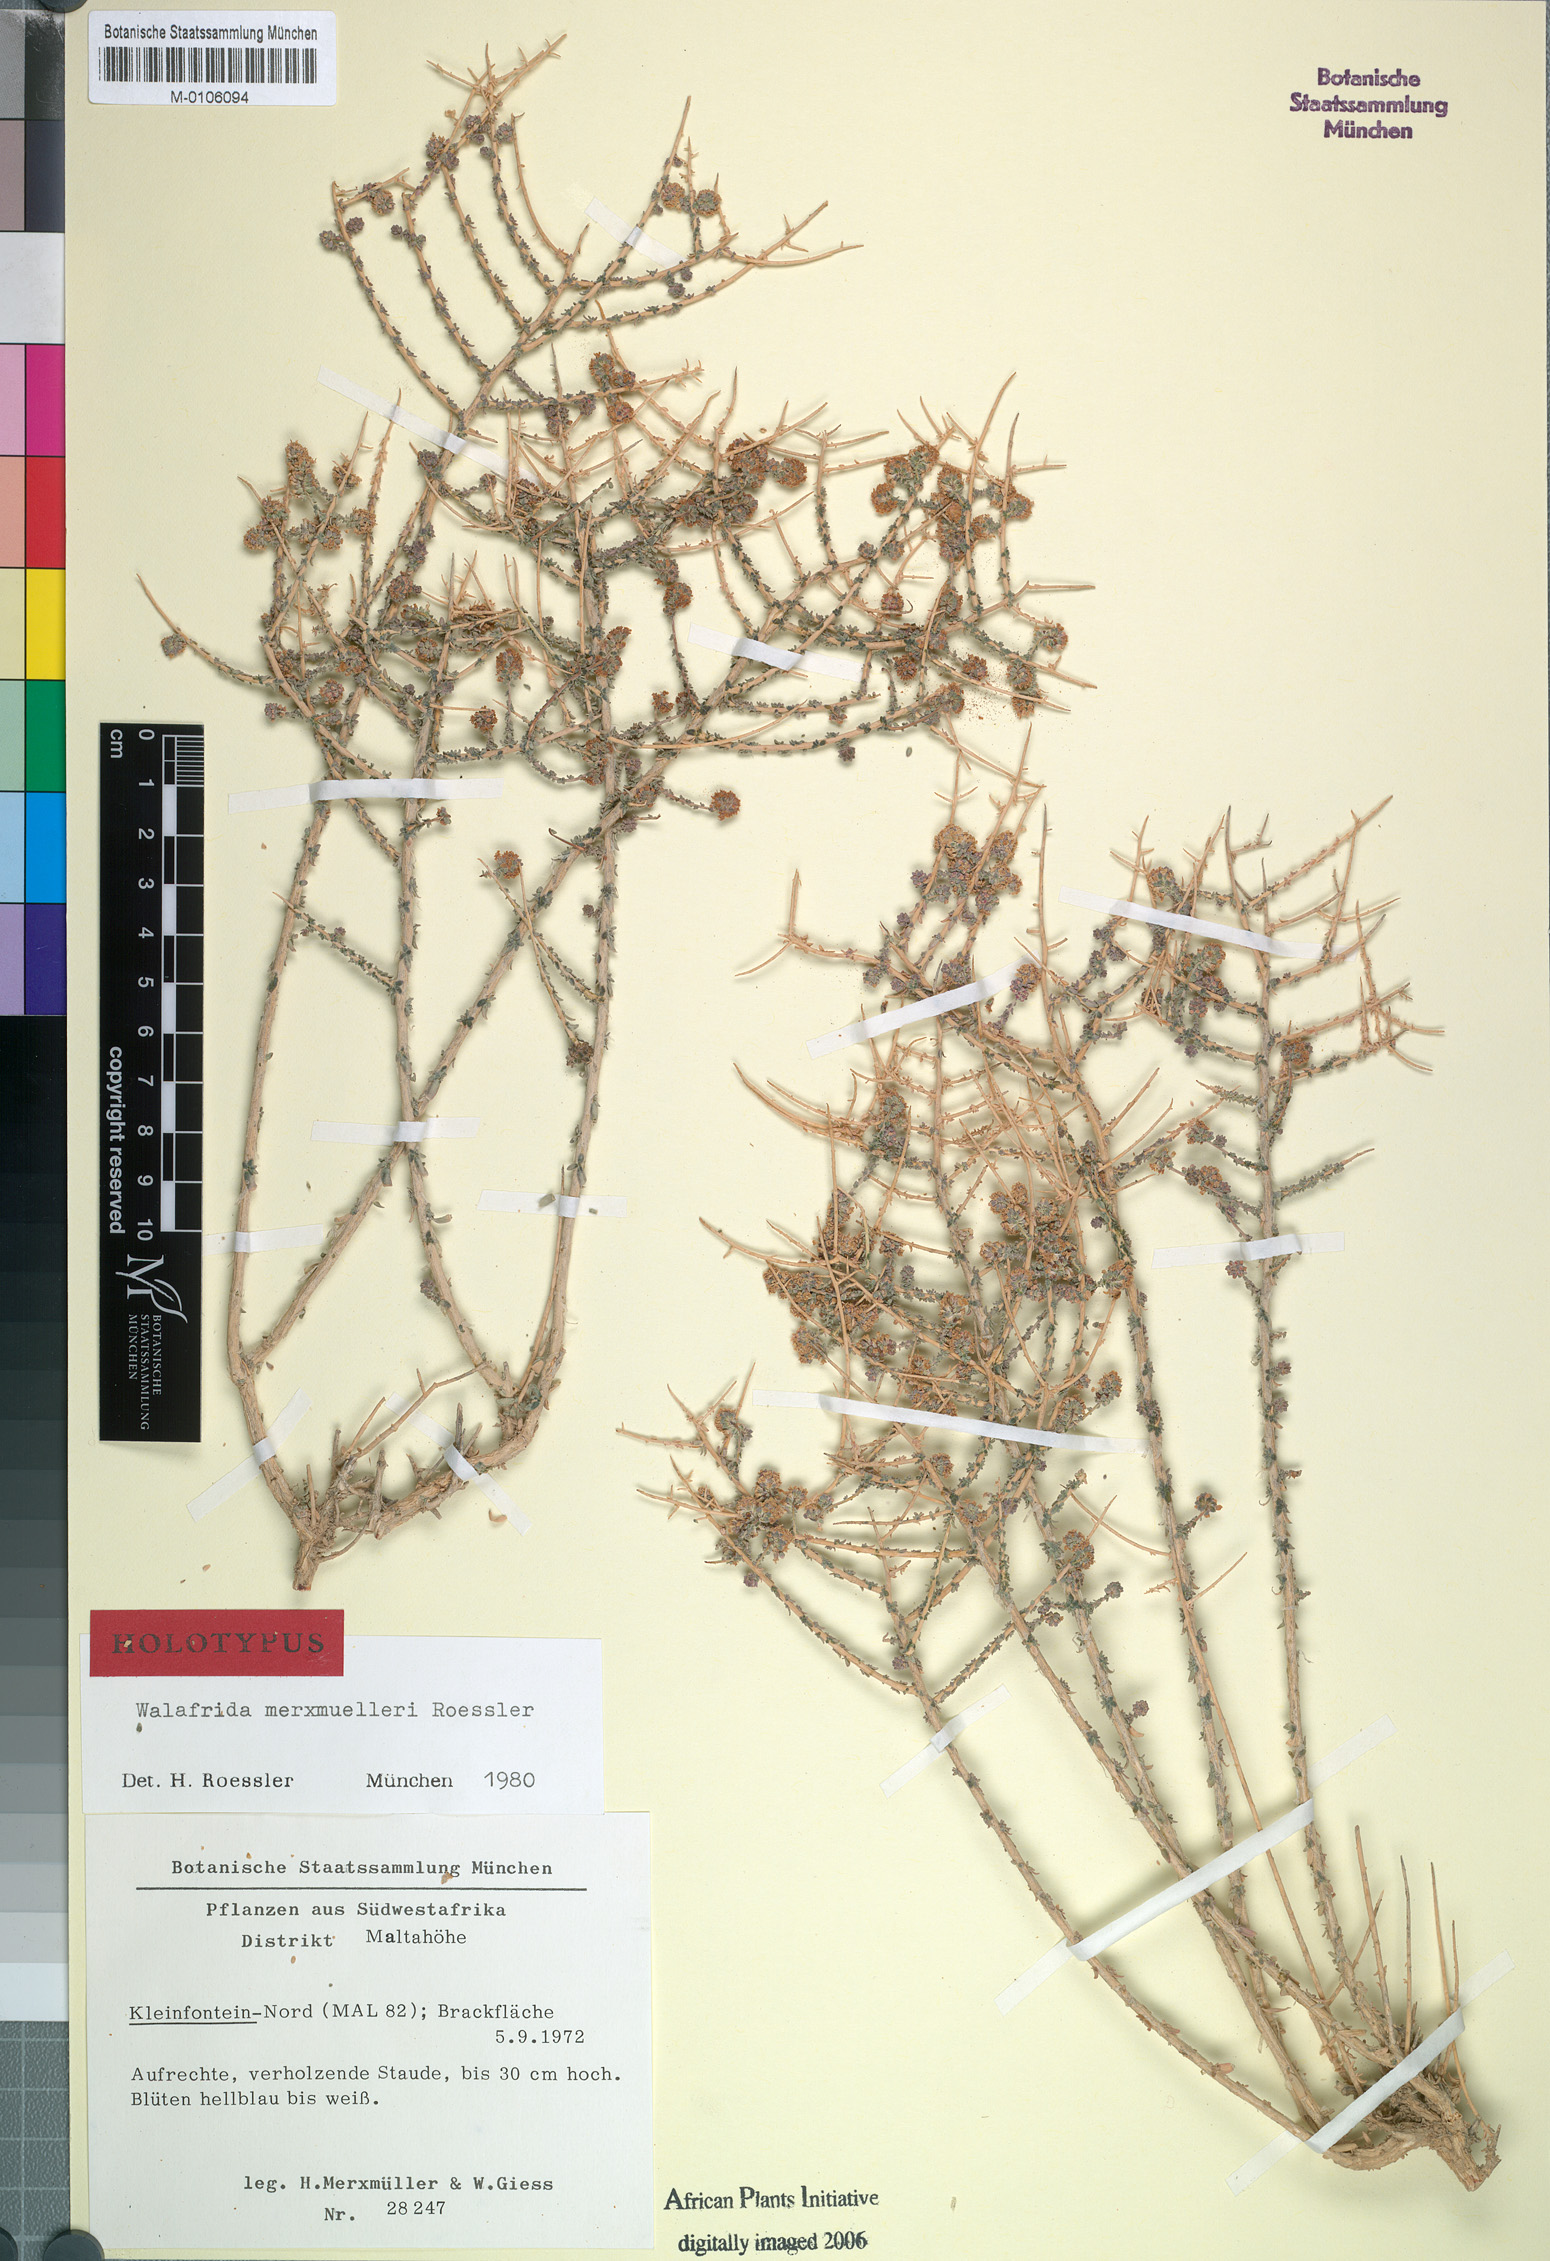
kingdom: Plantae
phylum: Tracheophyta
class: Magnoliopsida
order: Lamiales
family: Scrophulariaceae
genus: Selago
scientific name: Selago divaricata
